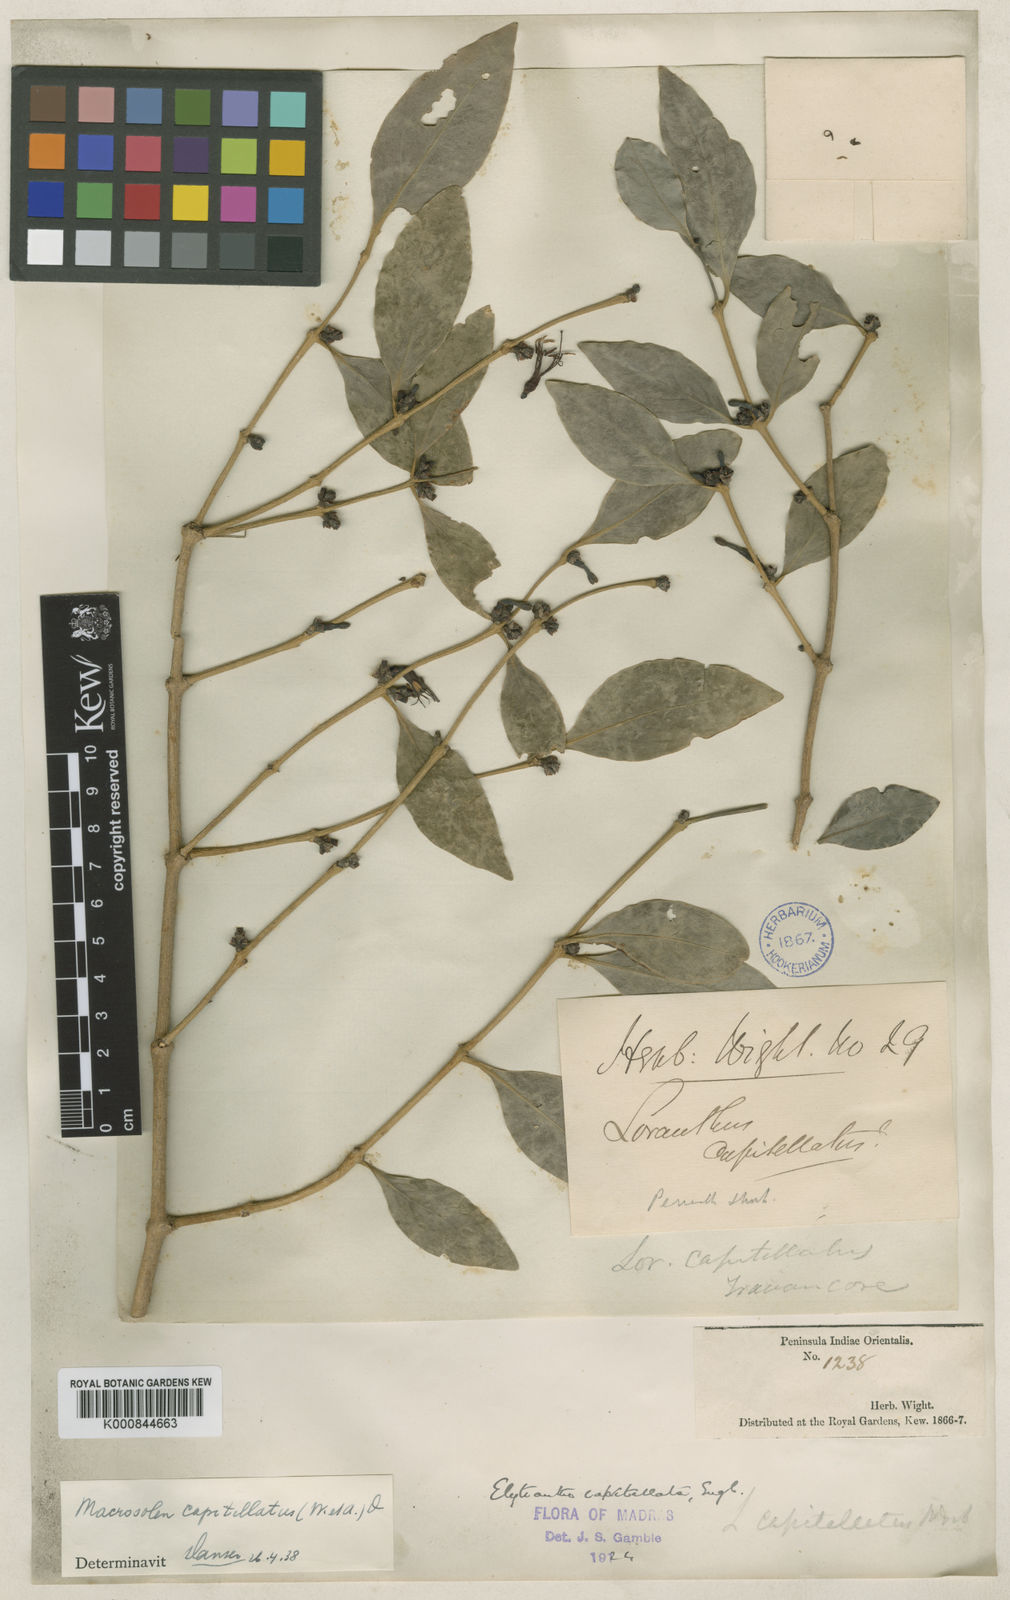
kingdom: Plantae
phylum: Tracheophyta
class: Magnoliopsida
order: Santalales
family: Loranthaceae
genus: Macrosolen
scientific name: Macrosolen capitellatus
